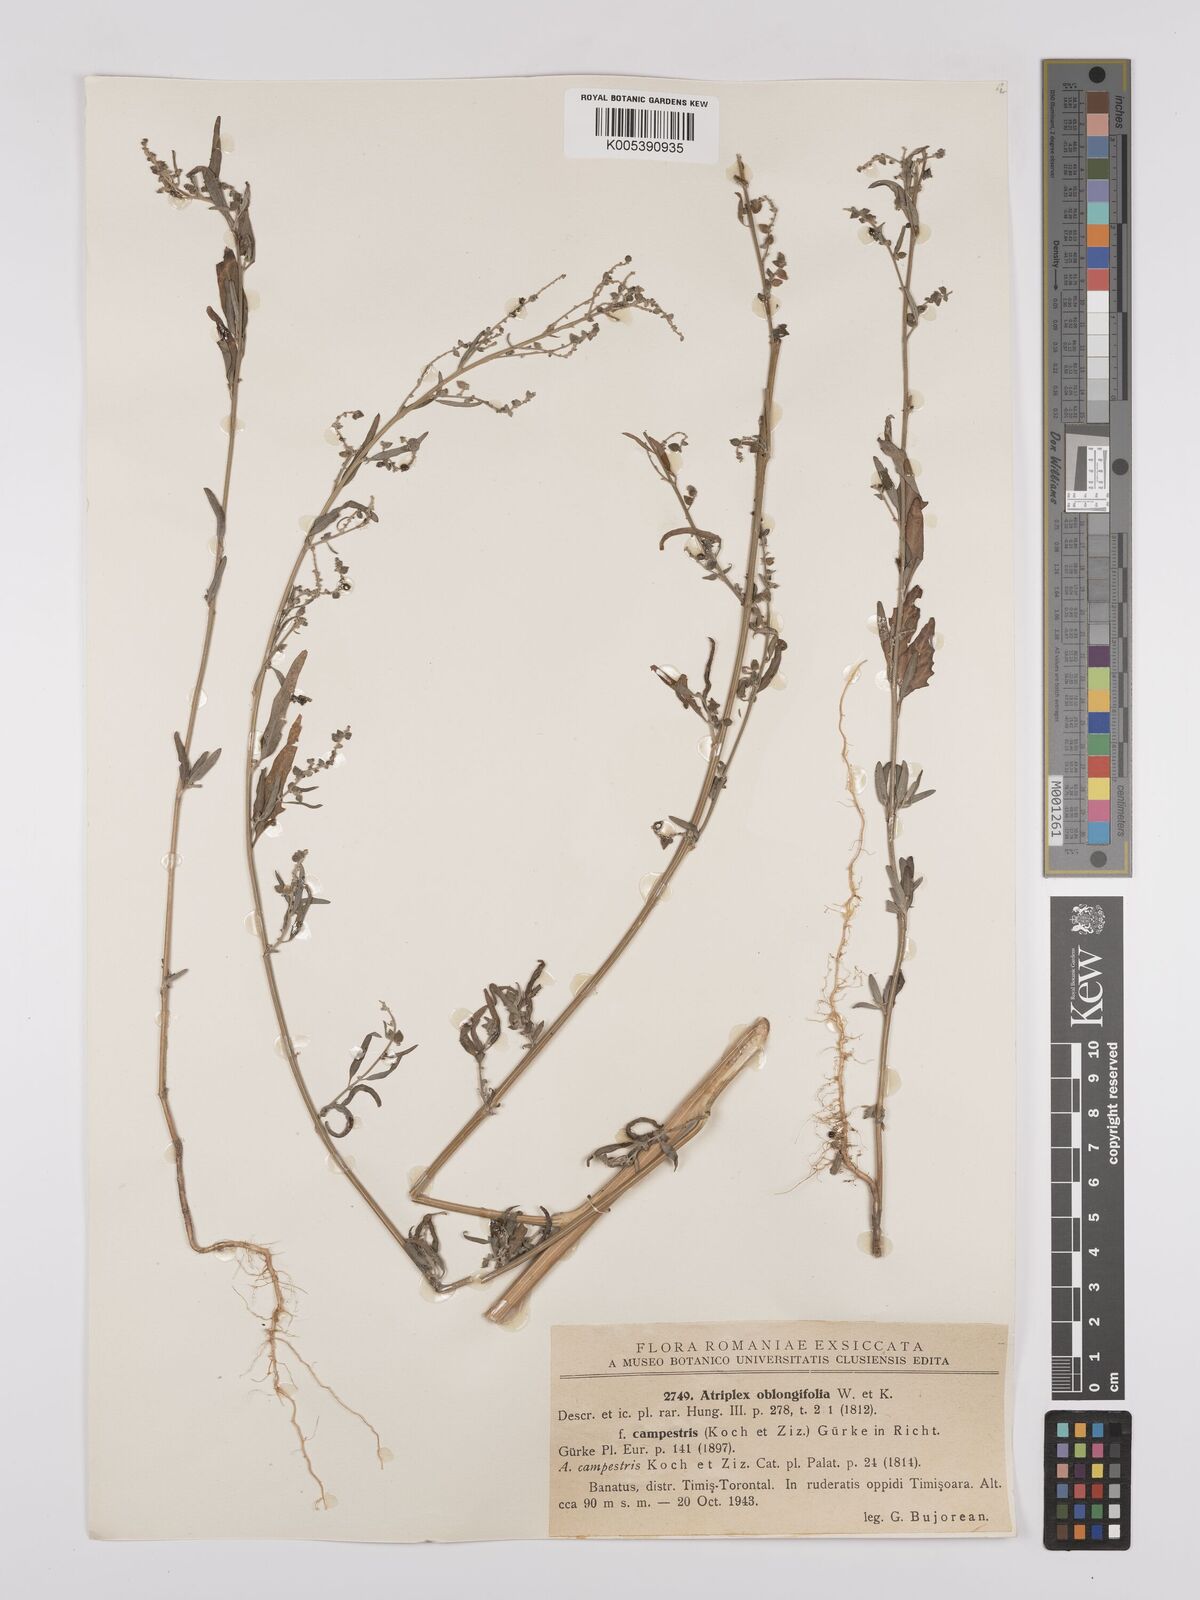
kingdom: Plantae
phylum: Tracheophyta
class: Magnoliopsida
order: Caryophyllales
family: Amaranthaceae
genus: Atriplex
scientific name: Atriplex
